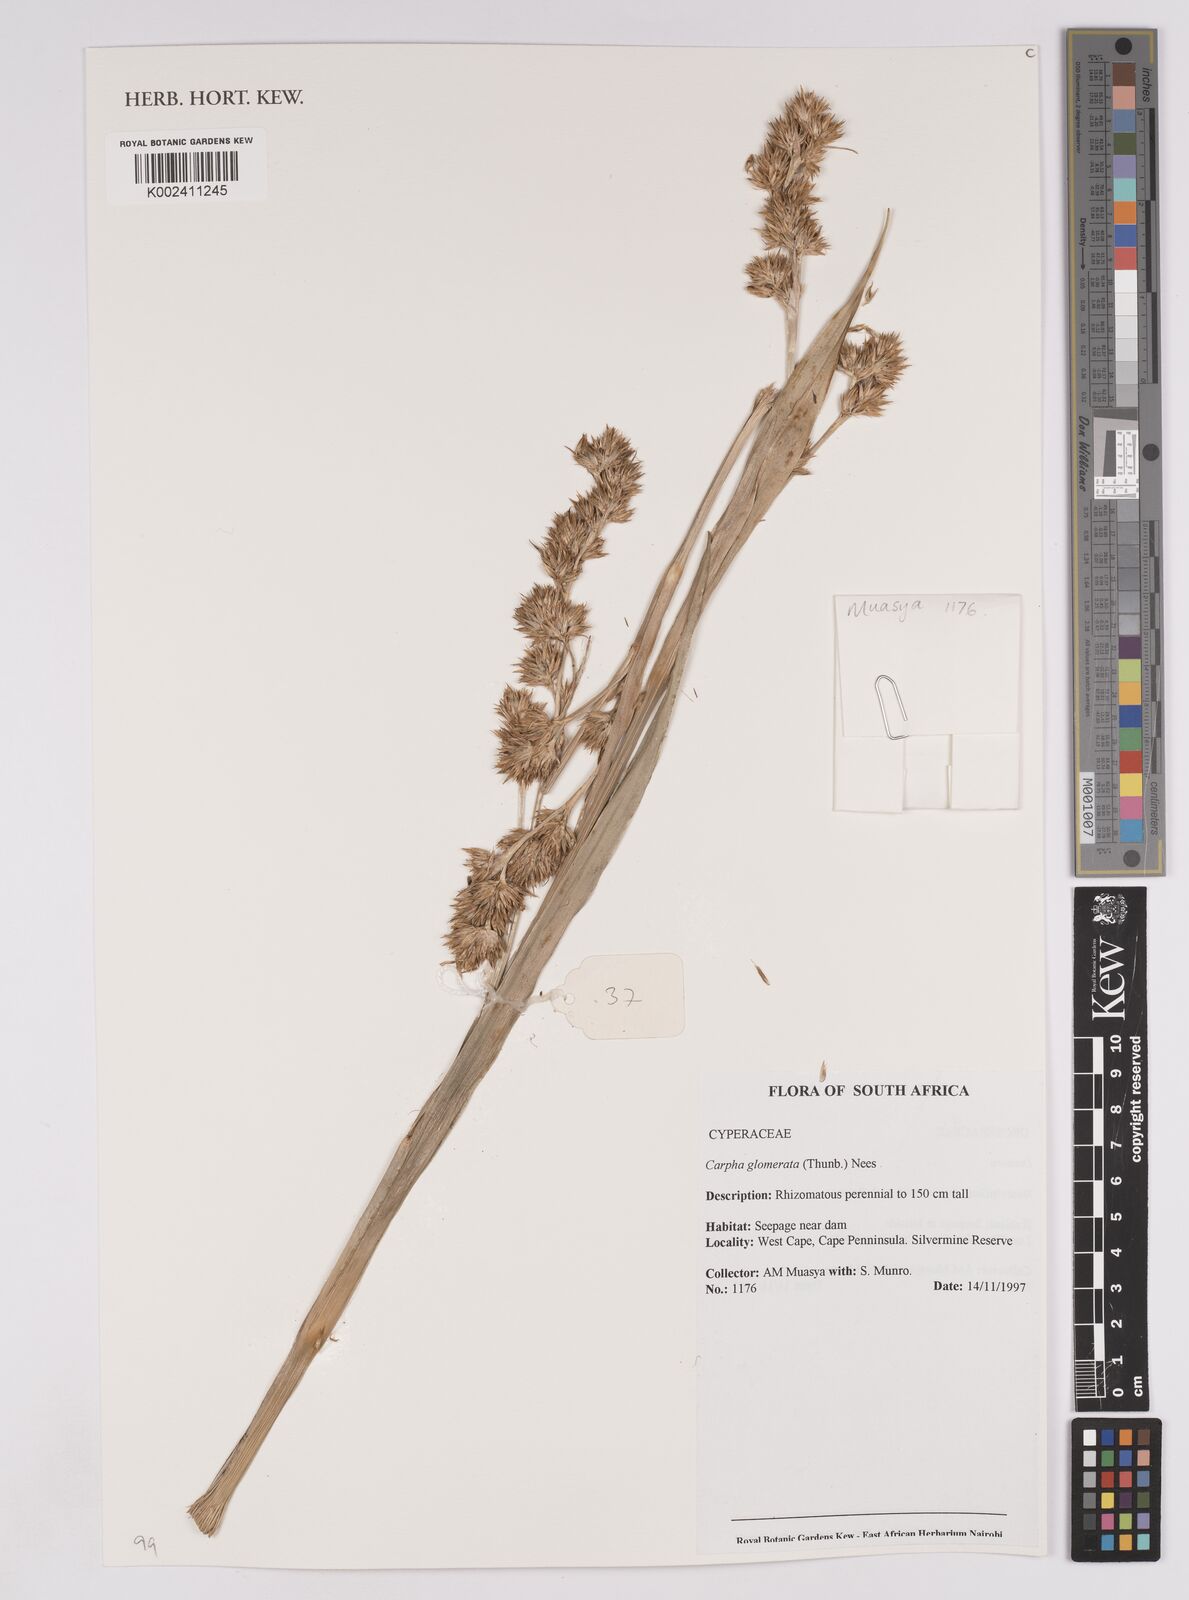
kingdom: Plantae
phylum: Tracheophyta
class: Liliopsida
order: Poales
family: Cyperaceae
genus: Carpha
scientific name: Carpha
